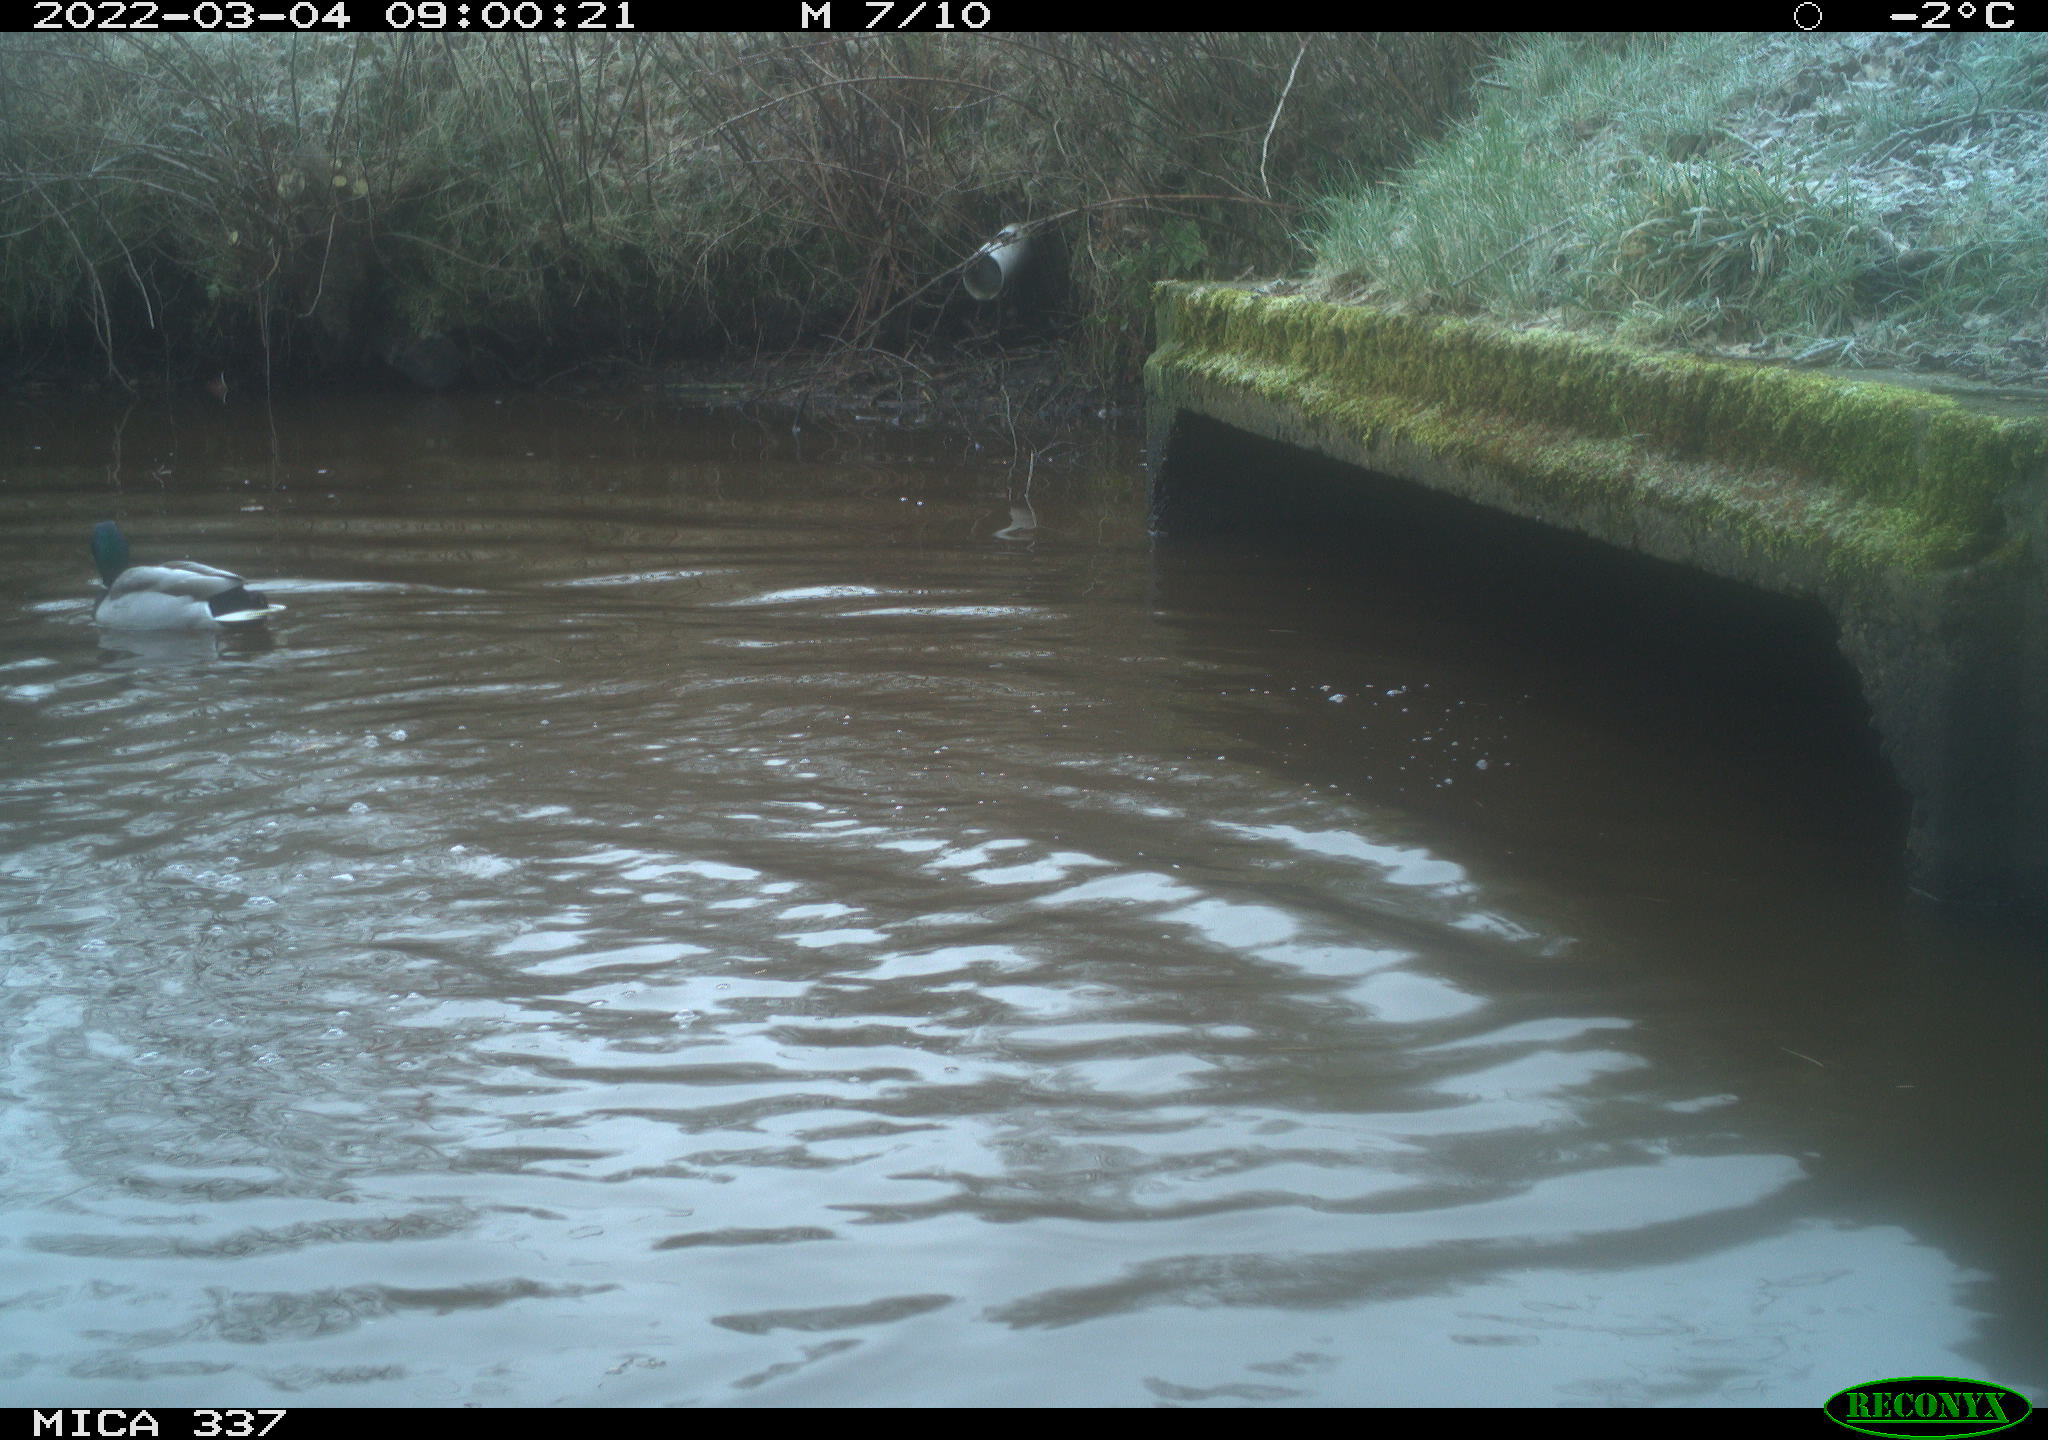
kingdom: Animalia
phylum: Chordata
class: Aves
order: Anseriformes
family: Anatidae
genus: Anas
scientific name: Anas platyrhynchos
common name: Mallard
